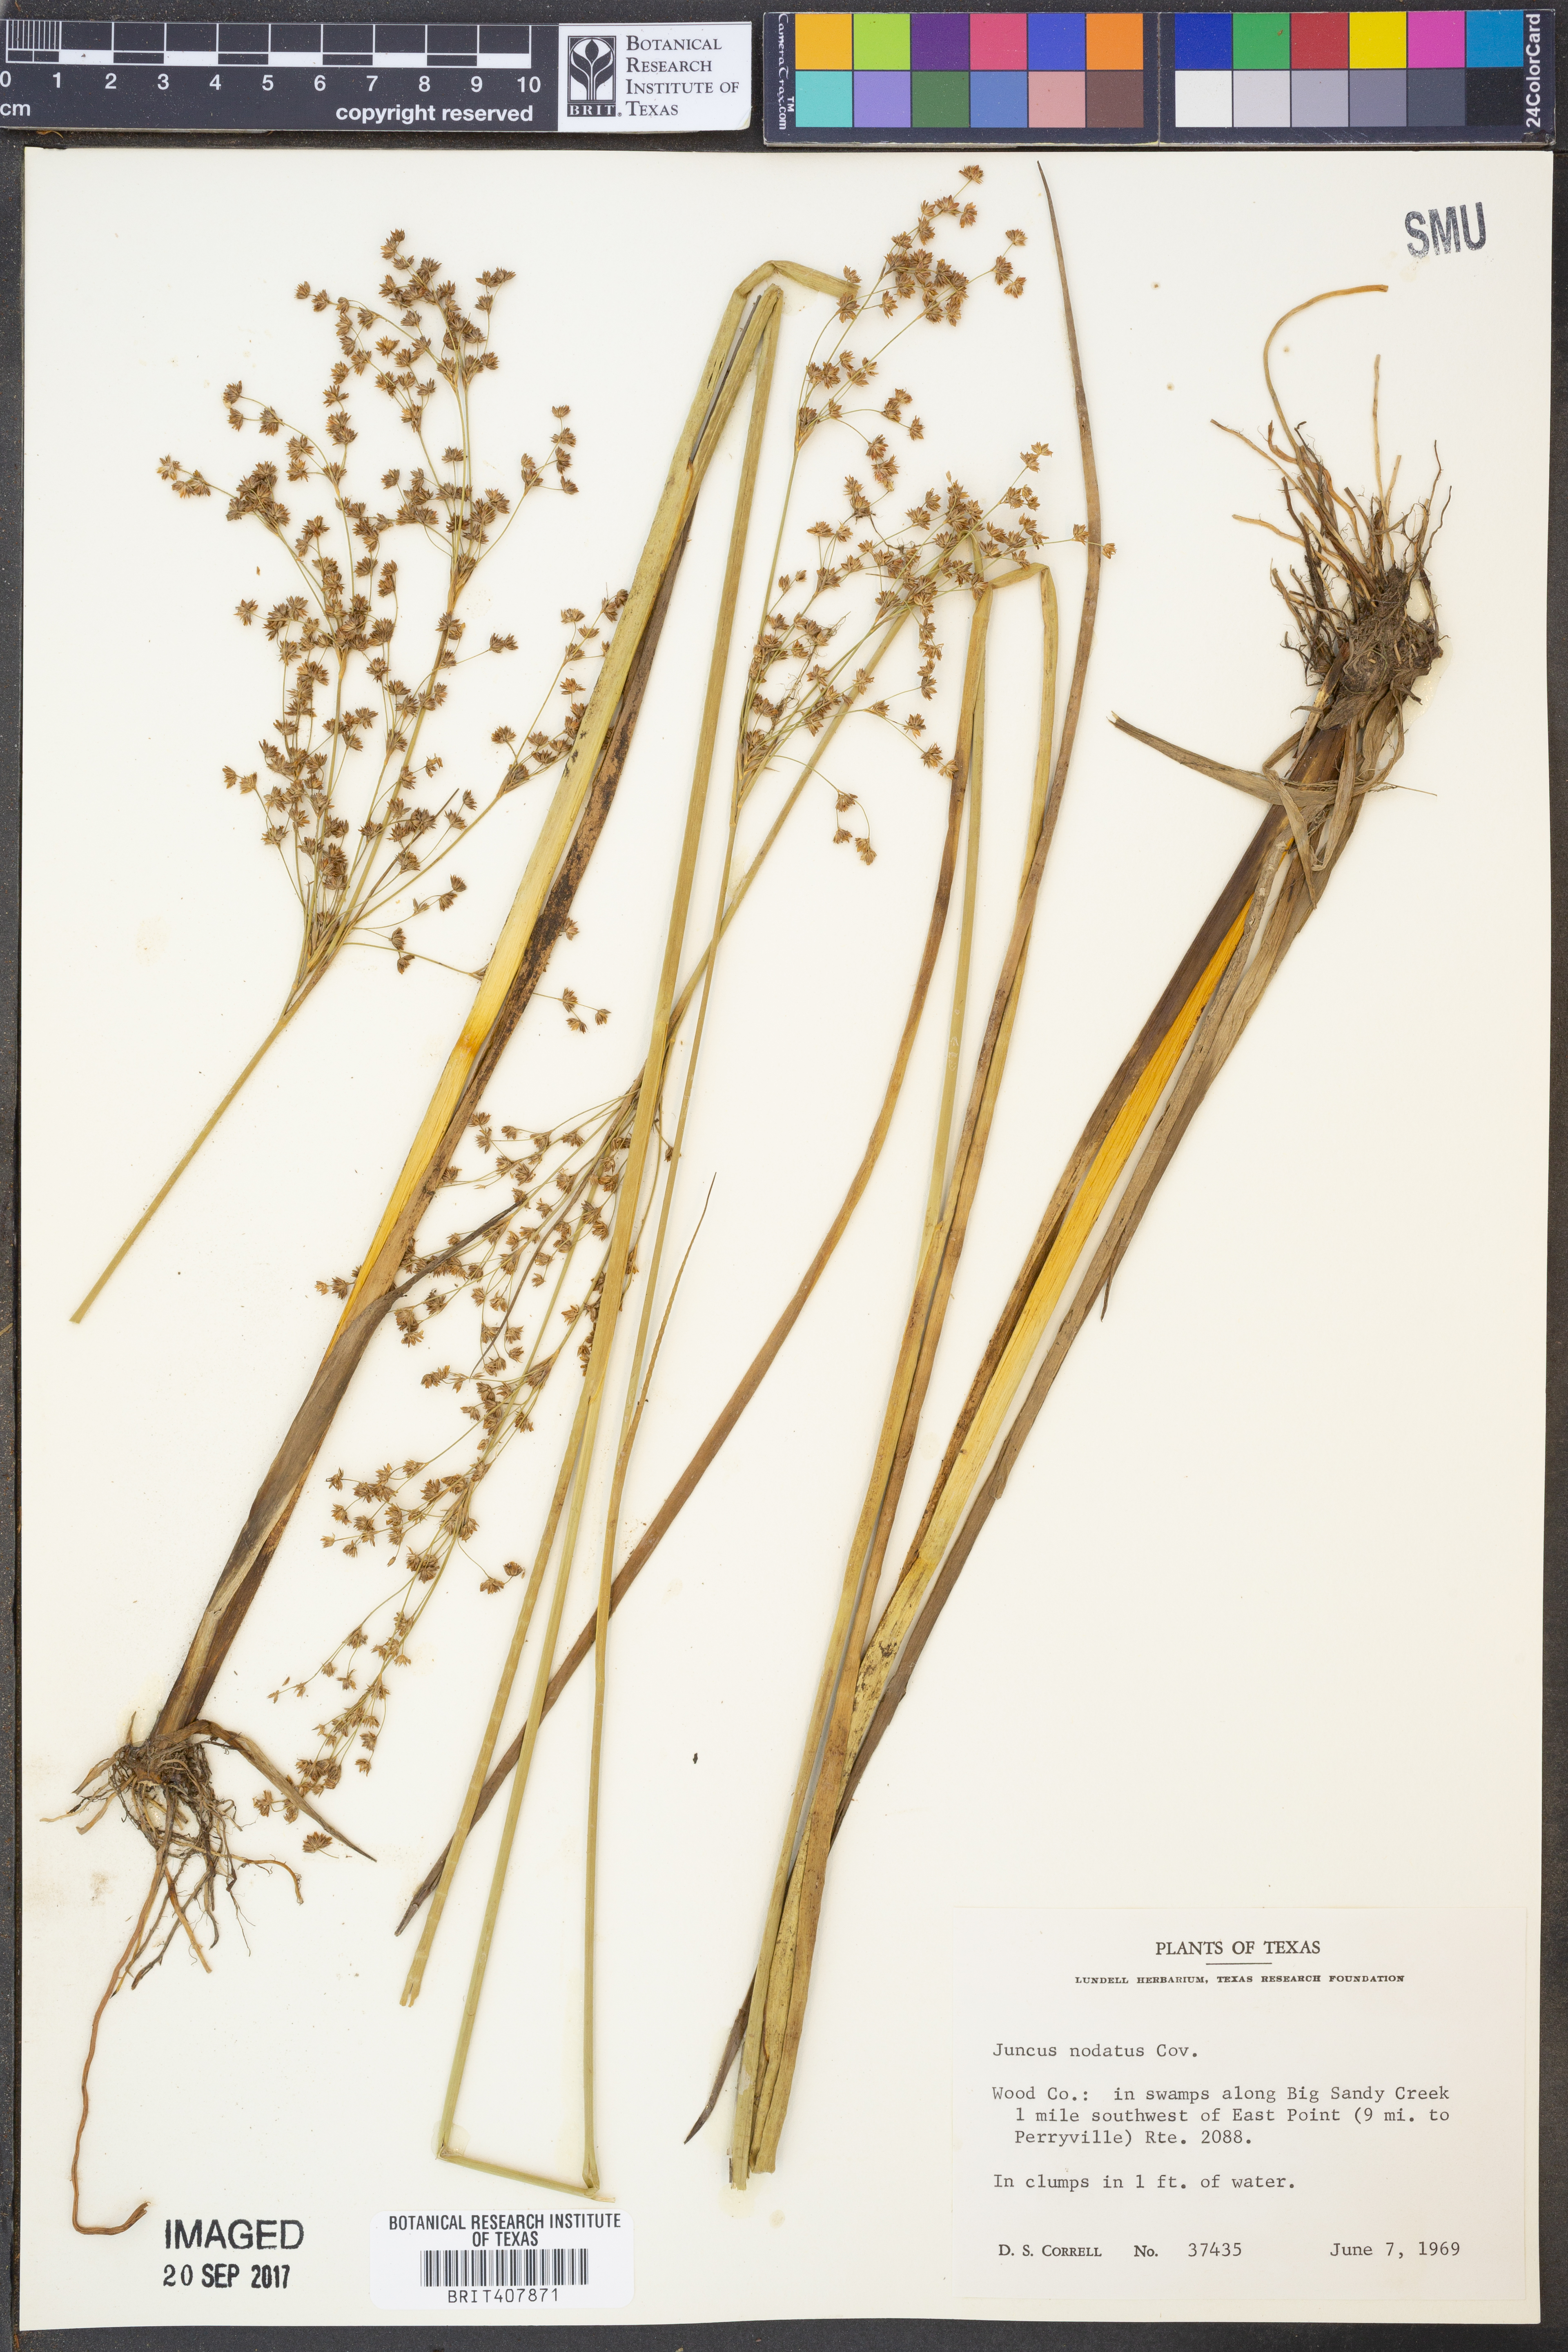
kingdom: Plantae
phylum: Tracheophyta
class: Liliopsida
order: Poales
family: Juncaceae
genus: Juncus
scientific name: Juncus nodatus
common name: Stout rush
